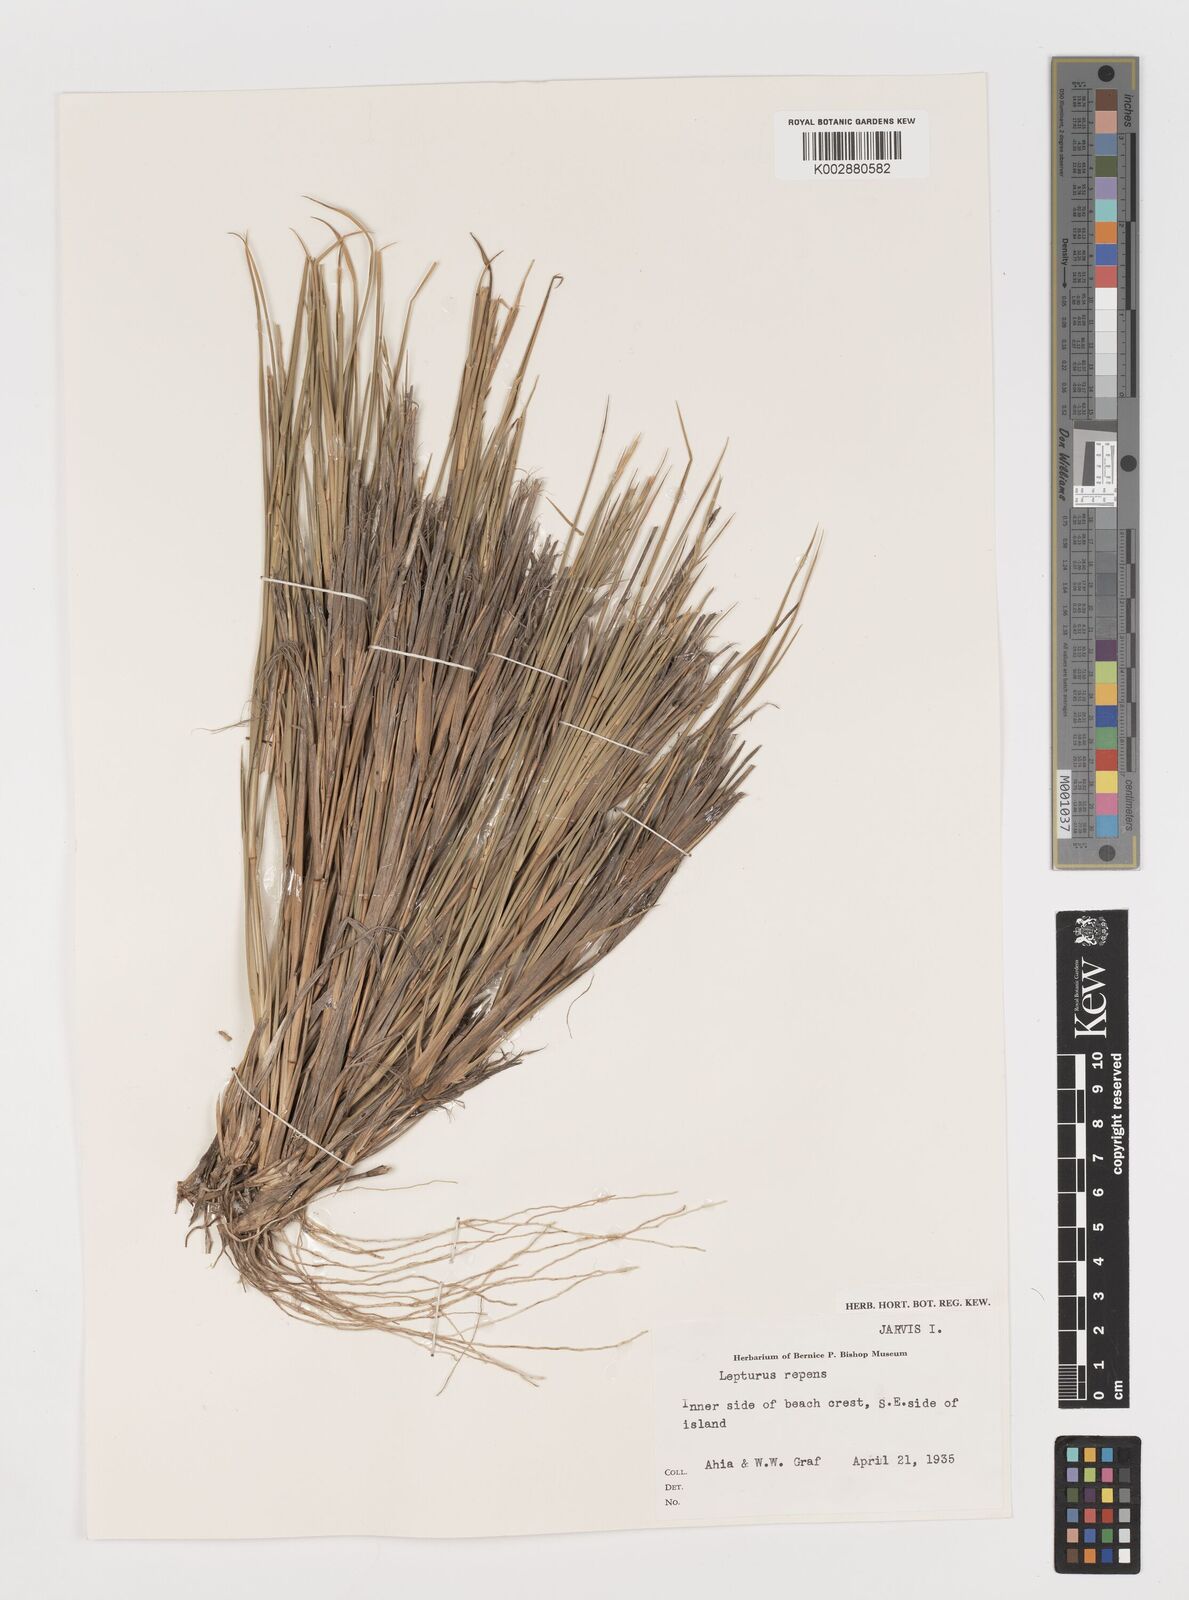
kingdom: Plantae
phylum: Tracheophyta
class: Liliopsida
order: Poales
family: Poaceae
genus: Lepturus
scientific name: Lepturus repens
